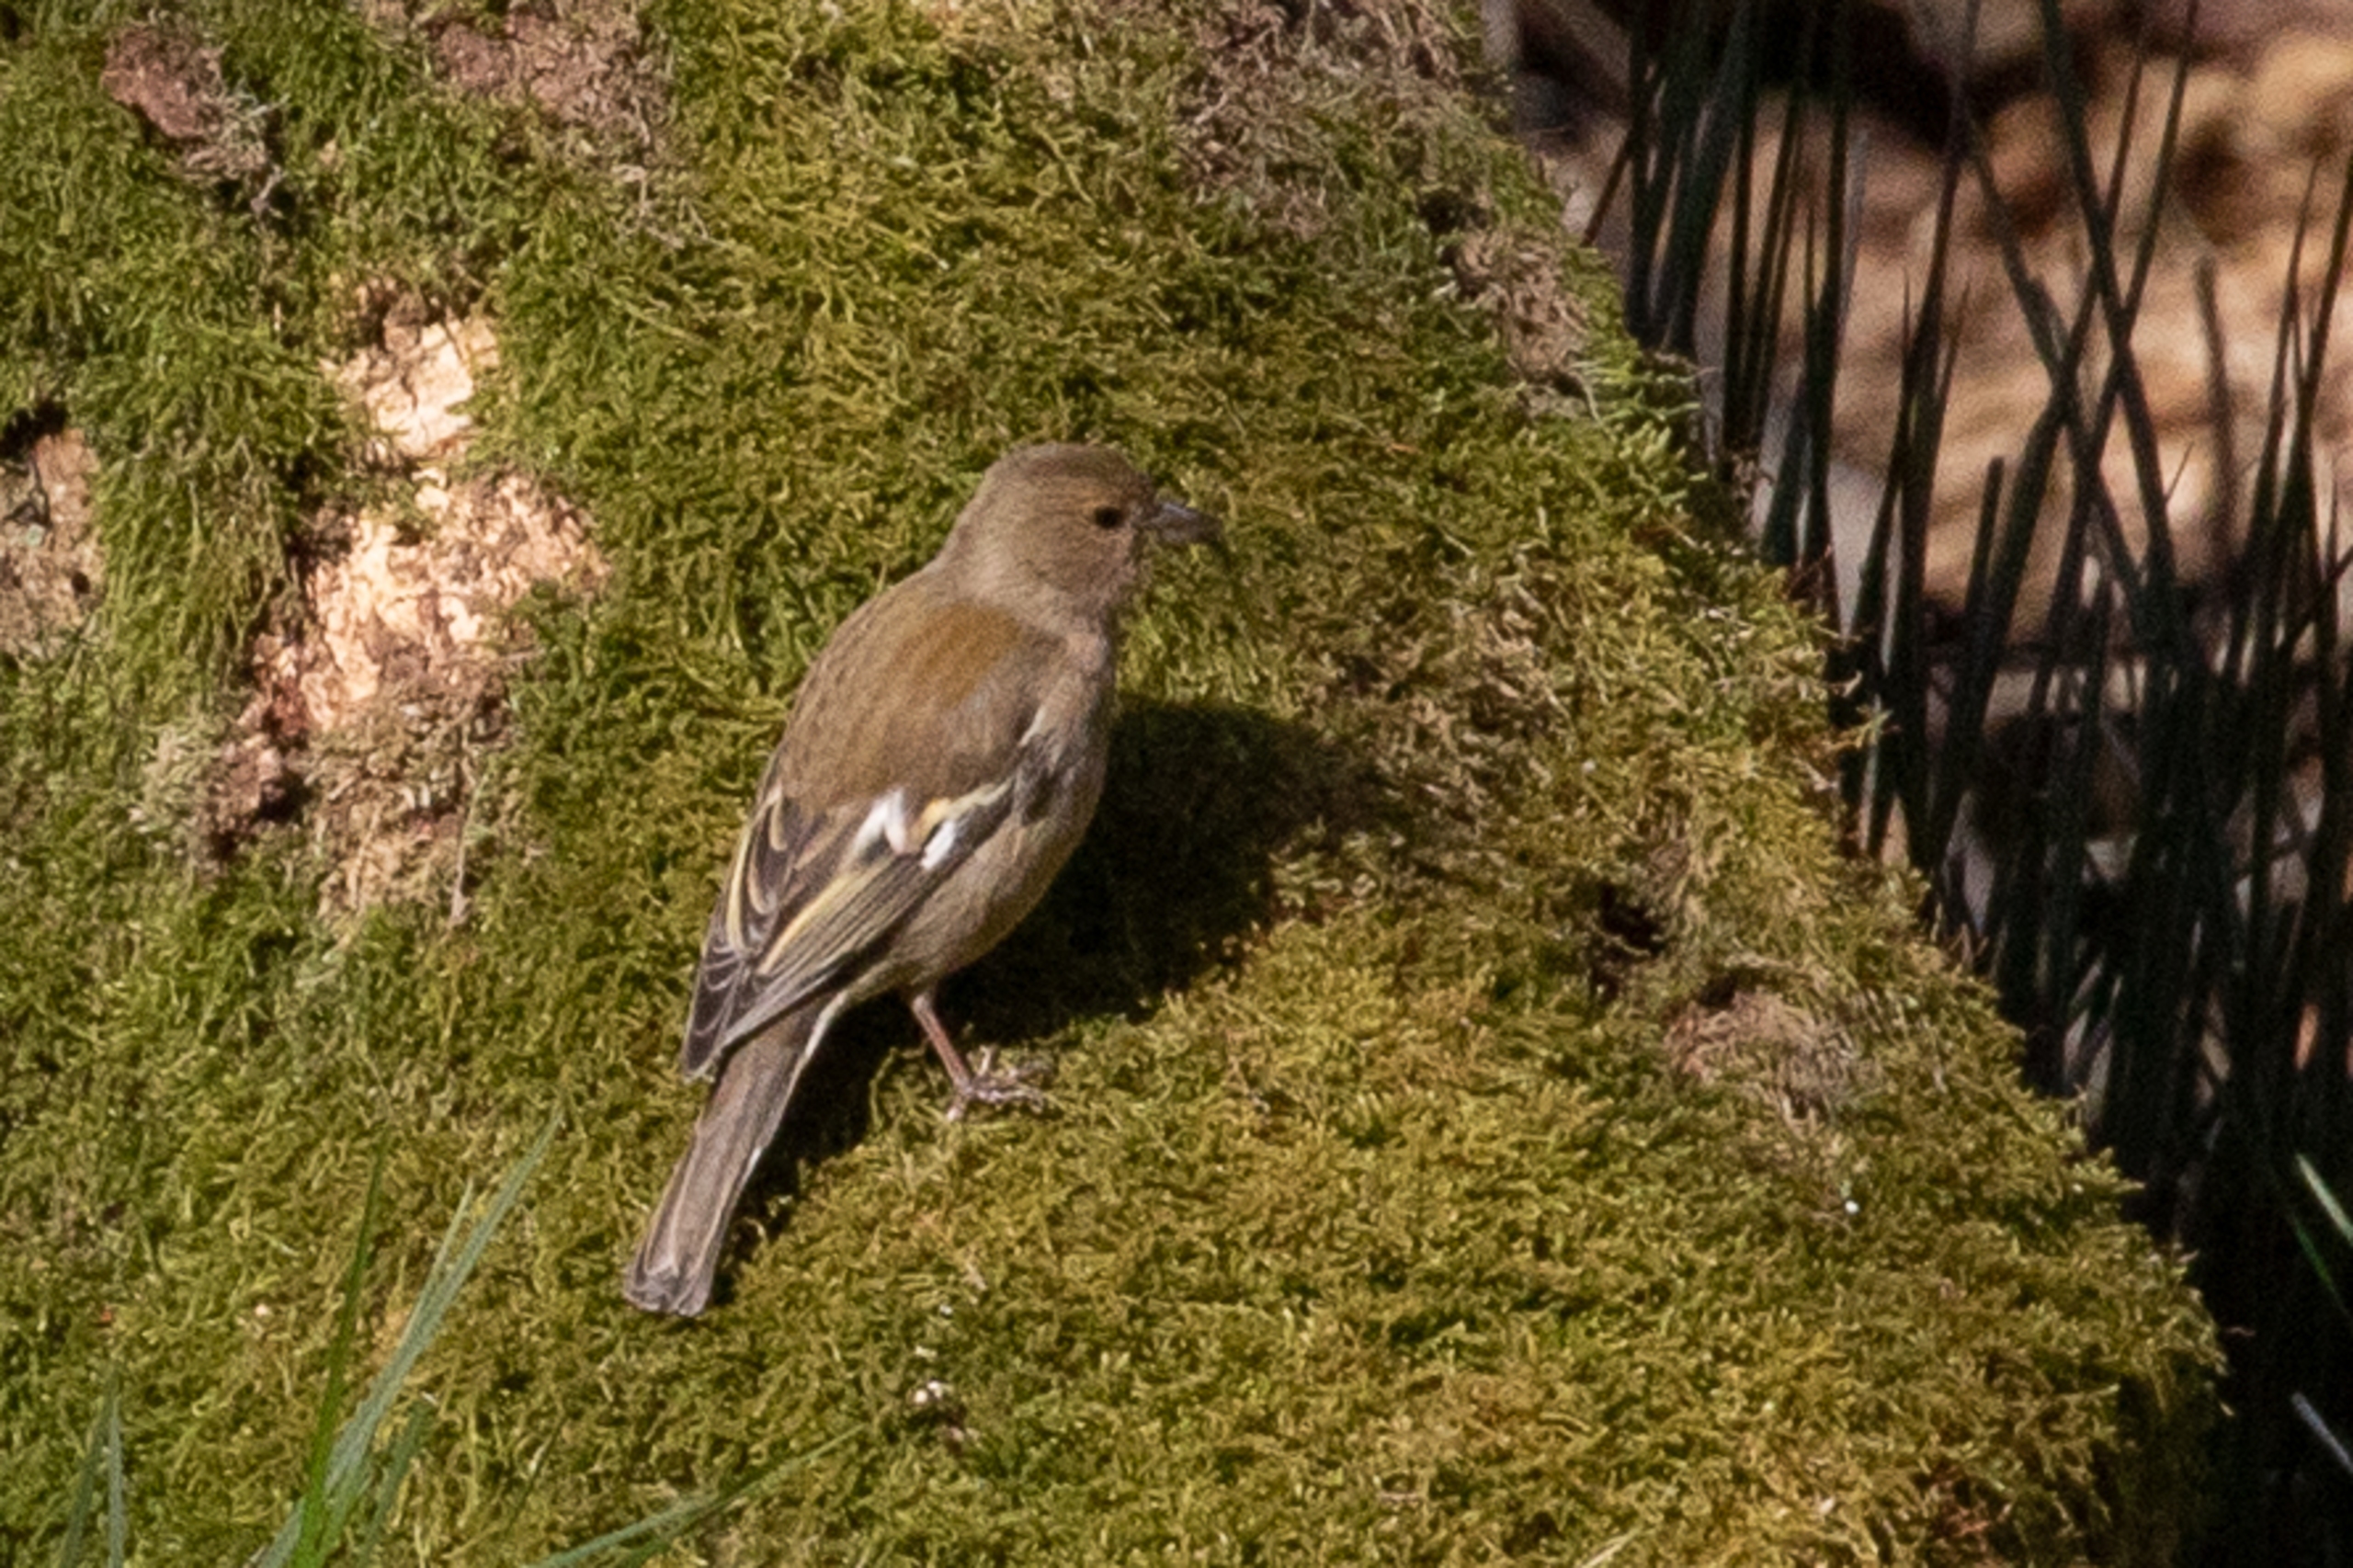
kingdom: Animalia
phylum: Chordata
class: Aves
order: Passeriformes
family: Fringillidae
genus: Fringilla
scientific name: Fringilla coelebs
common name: Bogfinke
